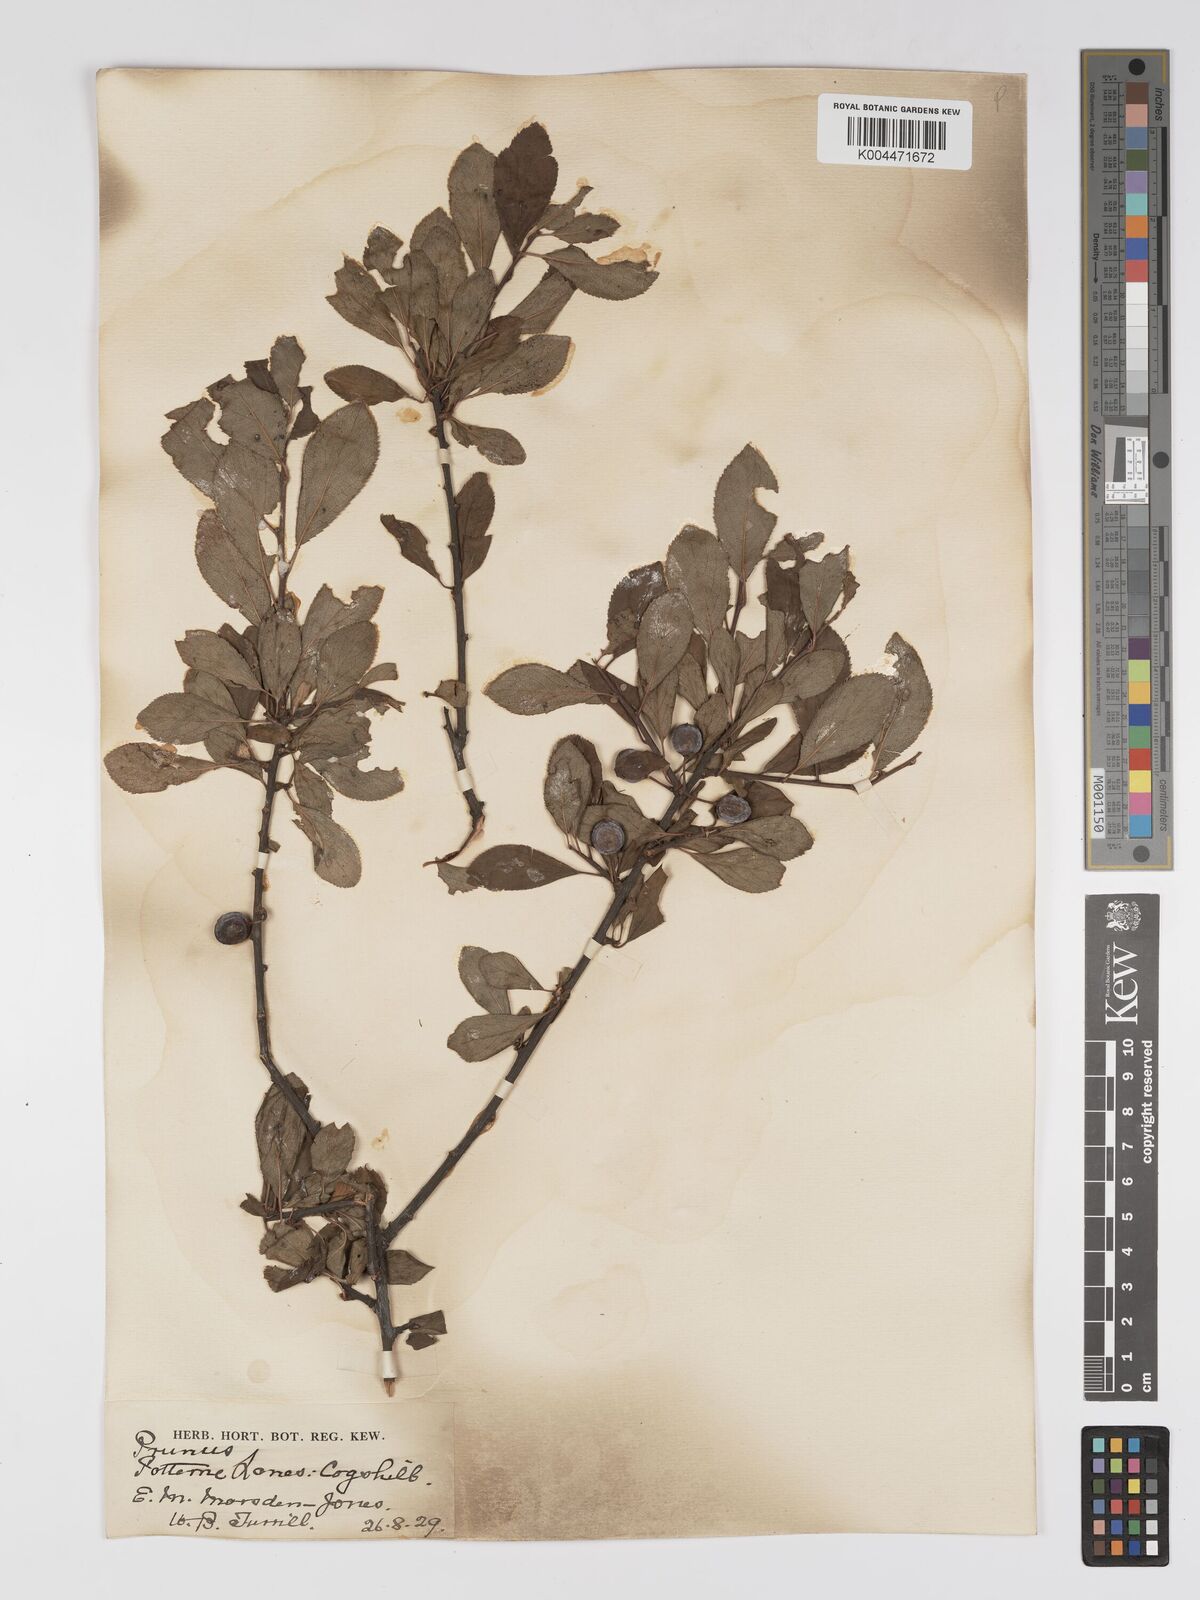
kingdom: Plantae
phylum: Tracheophyta
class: Magnoliopsida
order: Rosales
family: Rosaceae
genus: Prunus
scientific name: Prunus
